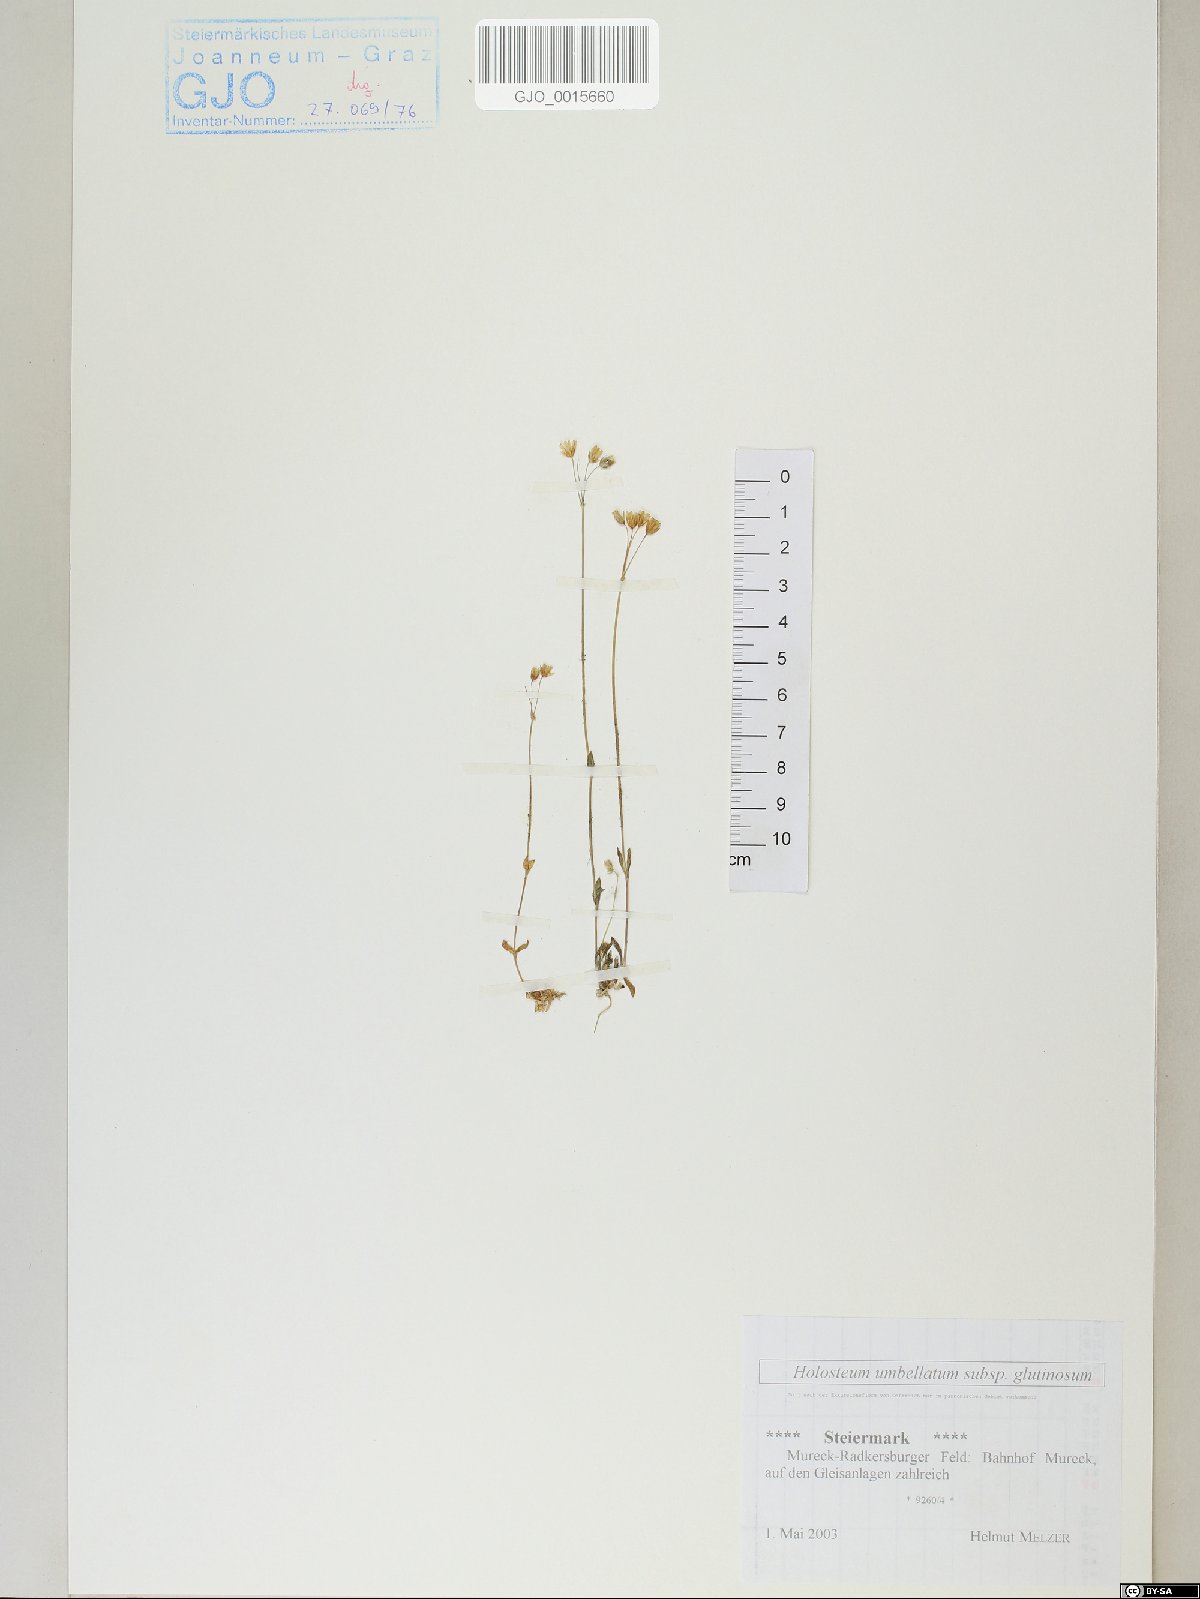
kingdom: Plantae
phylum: Tracheophyta
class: Magnoliopsida
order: Caryophyllales
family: Caryophyllaceae
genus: Holosteum
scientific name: Holosteum glutinosum
